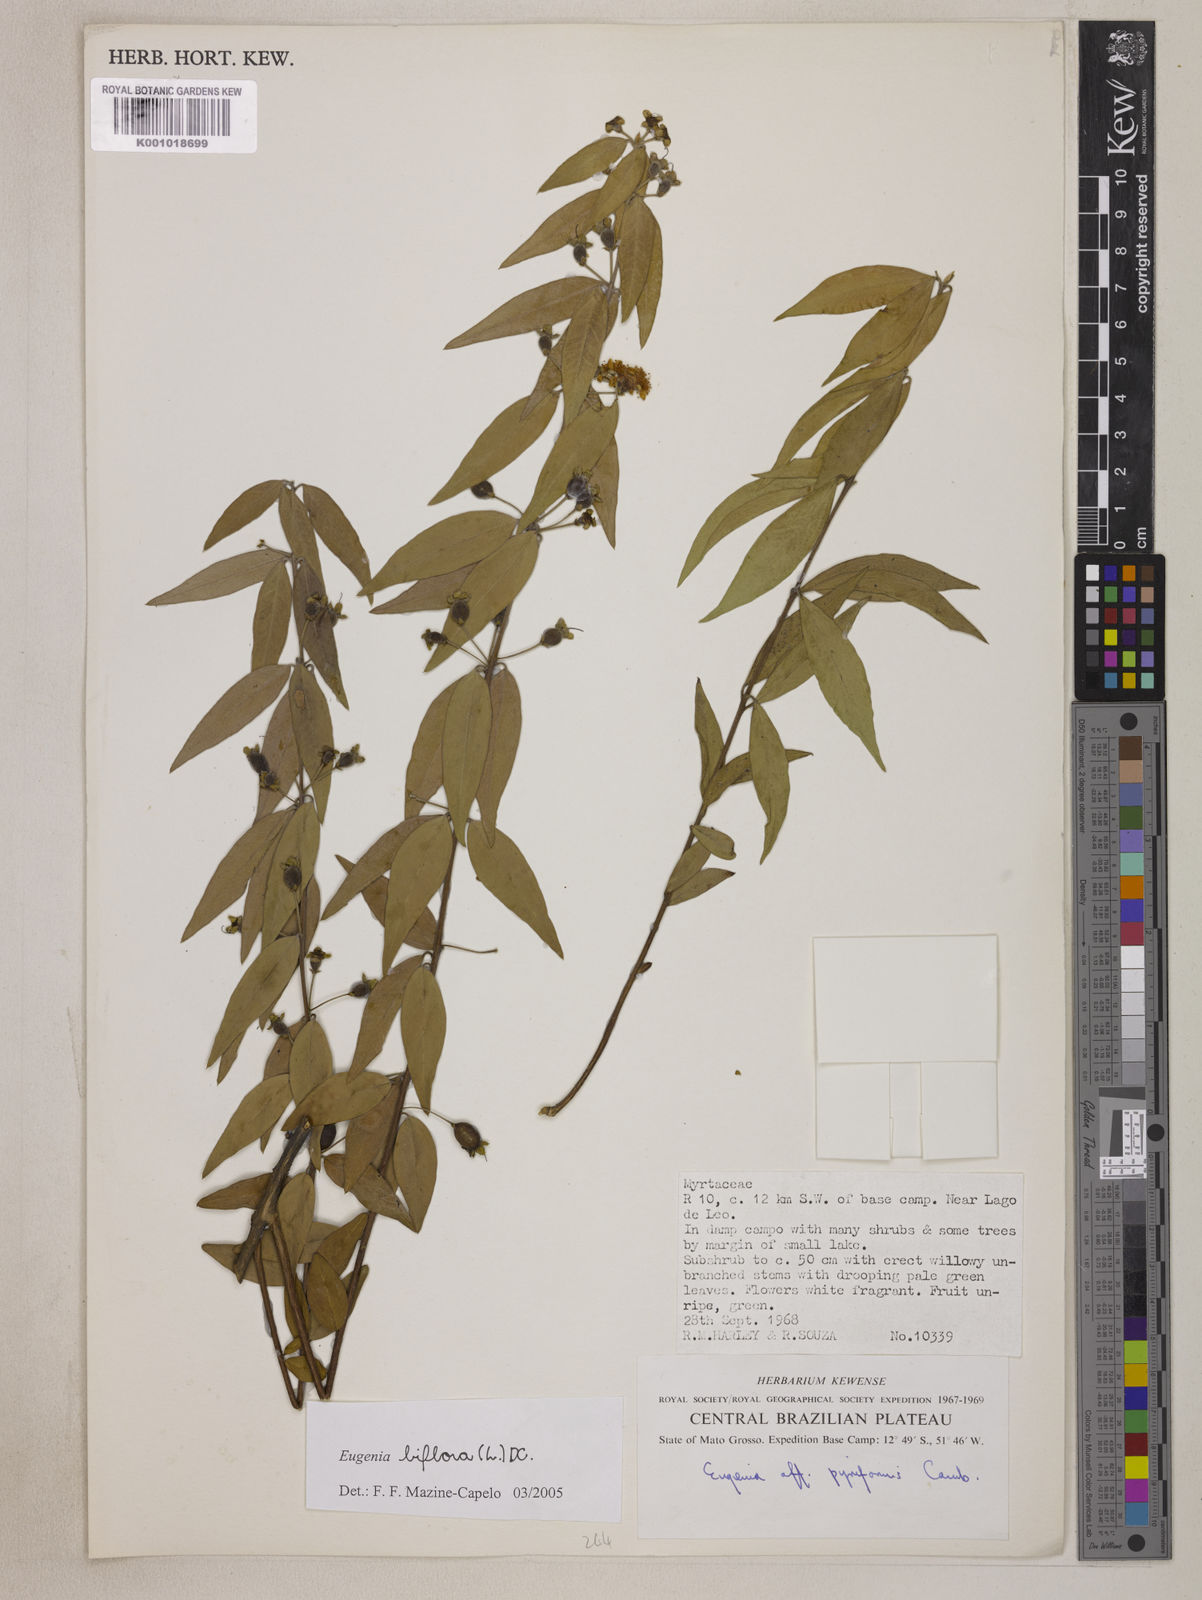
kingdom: Plantae
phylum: Tracheophyta
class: Magnoliopsida
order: Myrtales
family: Myrtaceae
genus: Eugenia
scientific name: Eugenia biflora
